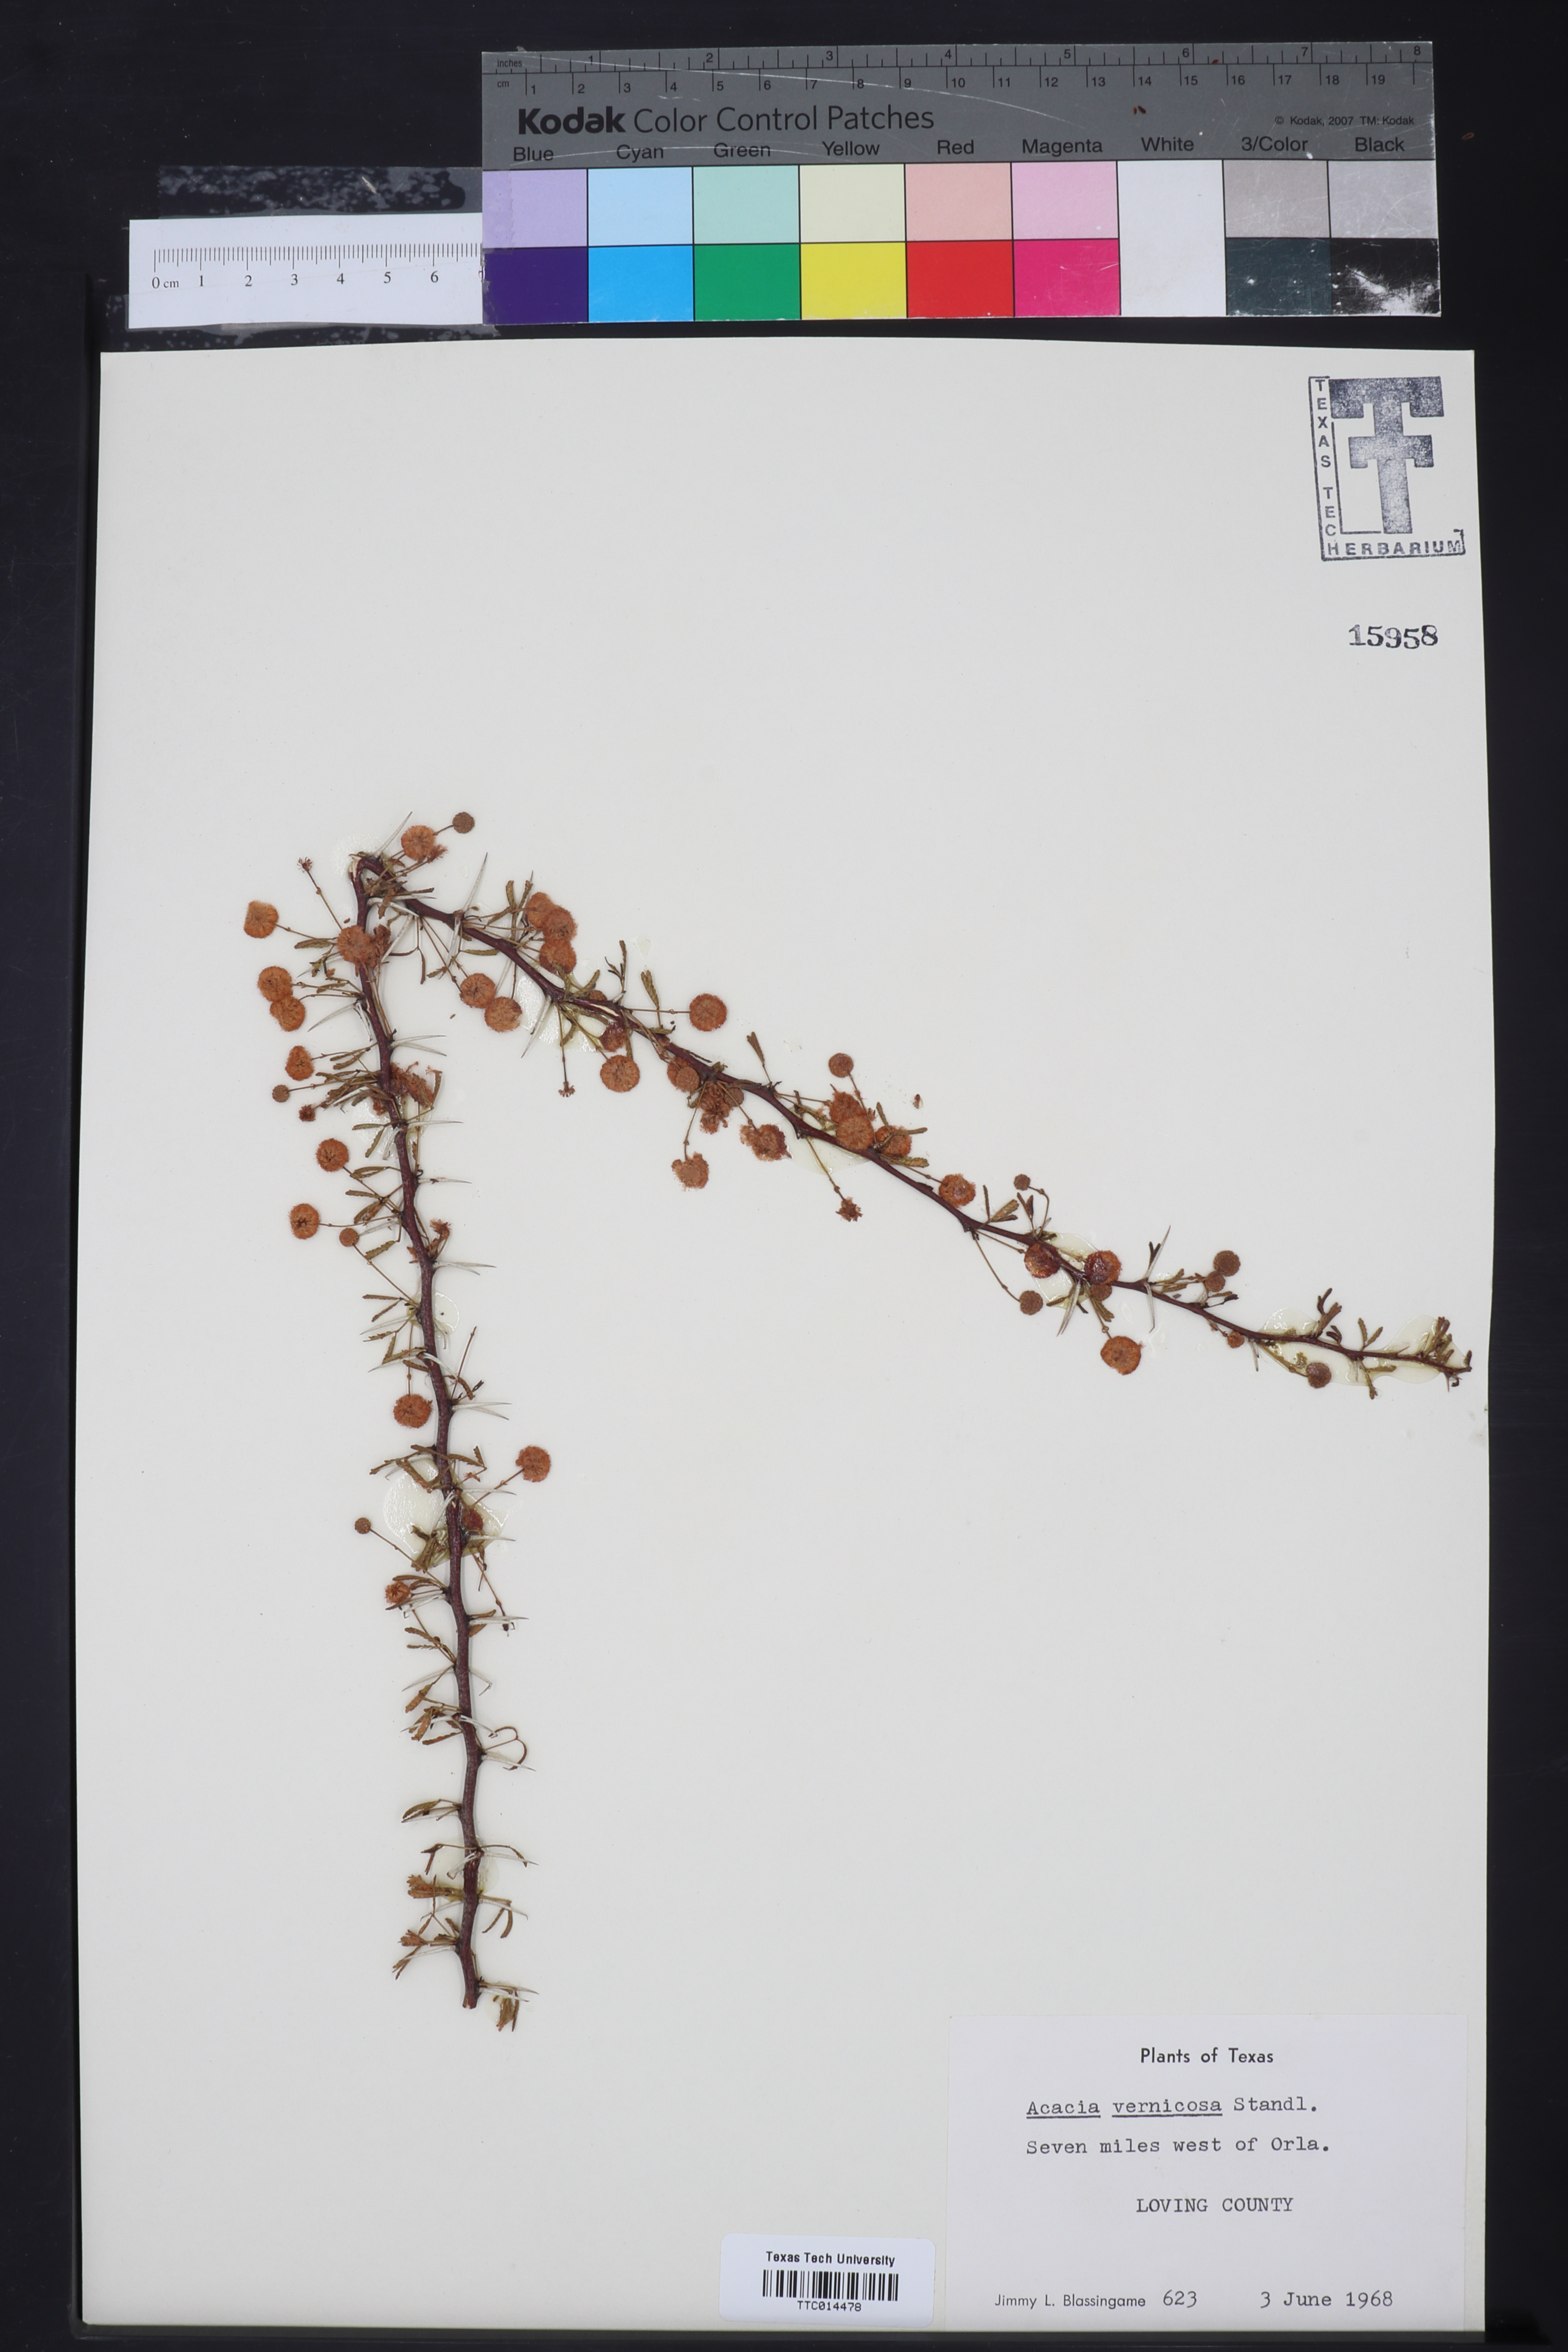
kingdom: Plantae
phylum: Tracheophyta
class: Magnoliopsida
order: Fabales
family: Fabaceae
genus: Vachellia
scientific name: Vachellia vernicosa
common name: Viscid acacia
